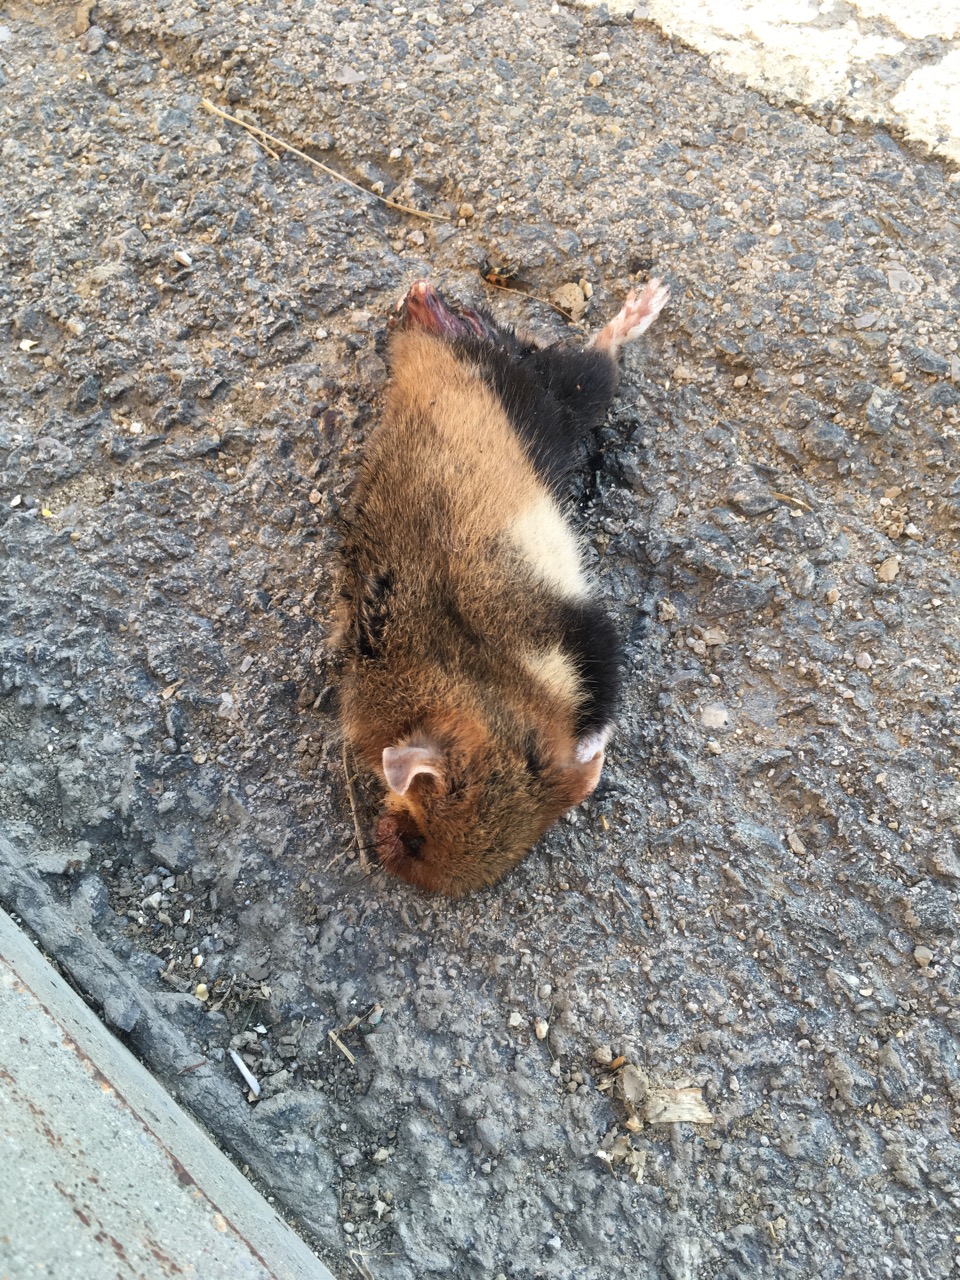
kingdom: Animalia
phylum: Chordata
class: Mammalia
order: Rodentia
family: Cricetidae
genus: Cricetus
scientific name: Cricetus cricetus
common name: Common hamster
